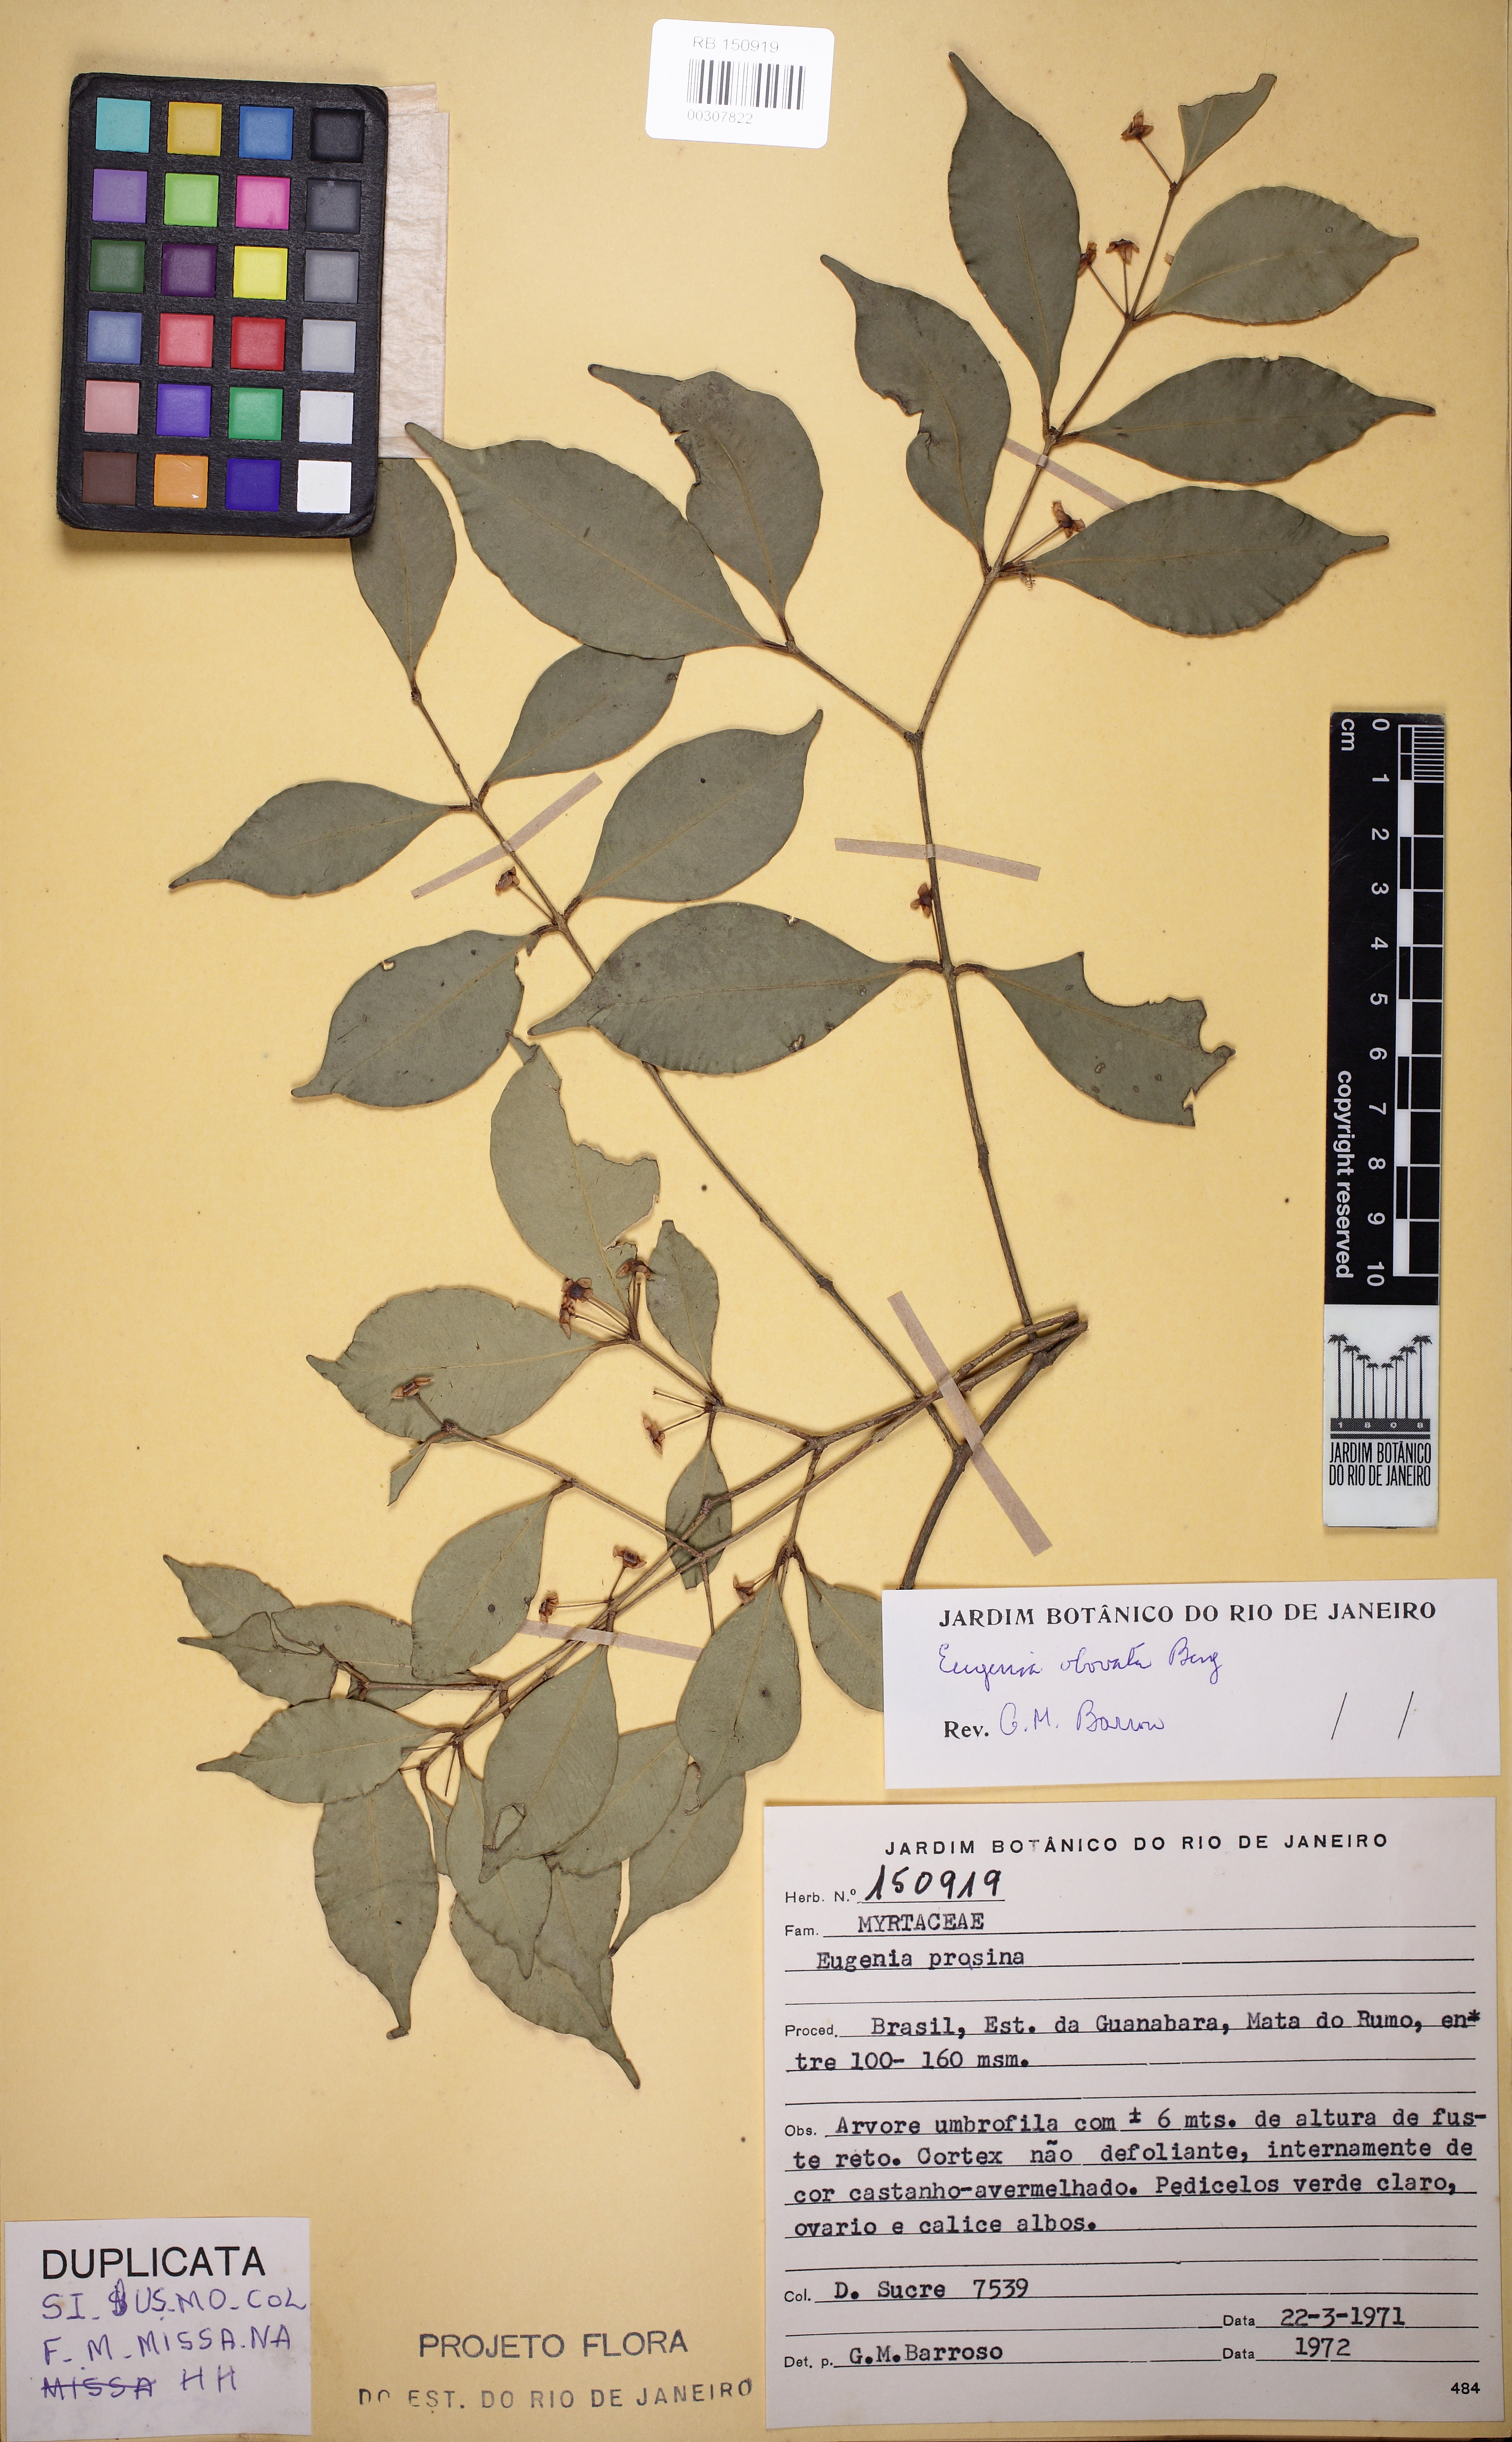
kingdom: Plantae
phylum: Tracheophyta
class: Magnoliopsida
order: Myrtales
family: Myrtaceae
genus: Eugenia
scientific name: Eugenia excelsa
